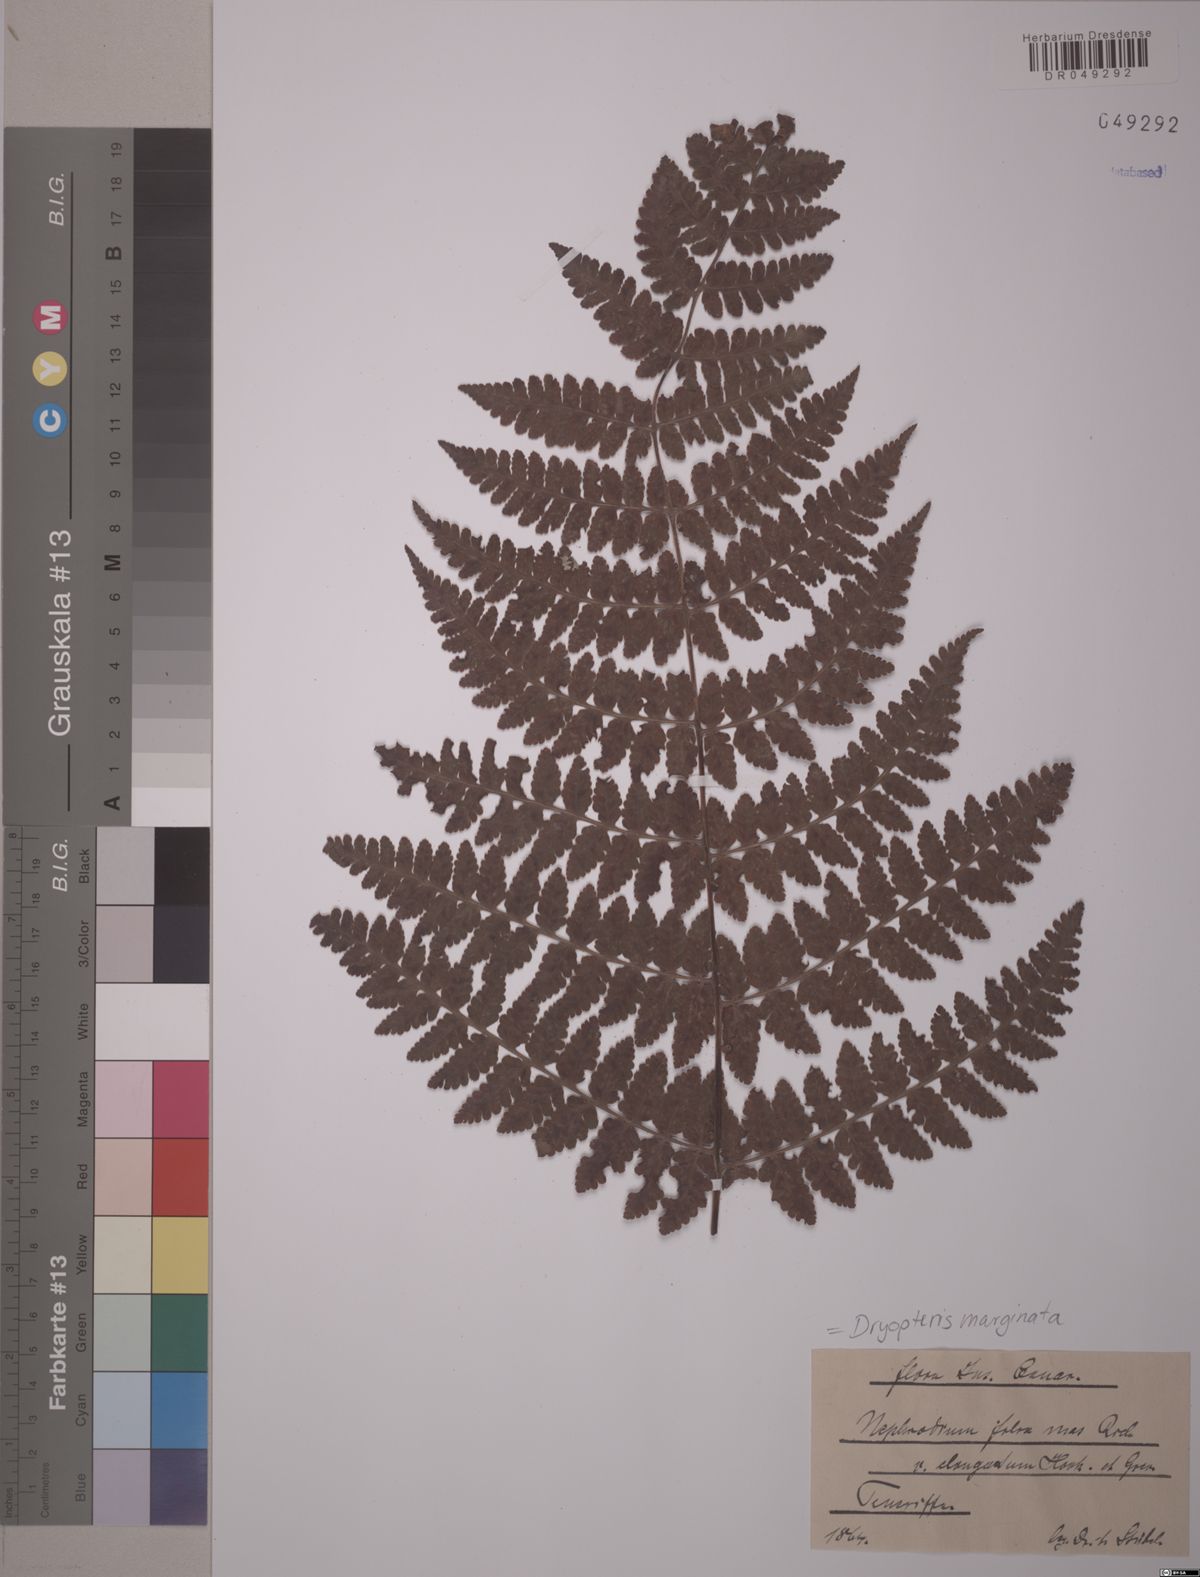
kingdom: Plantae
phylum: Tracheophyta
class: Polypodiopsida
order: Polypodiales
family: Dryopteridaceae
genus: Dryopteris
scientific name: Dryopteris marginata
